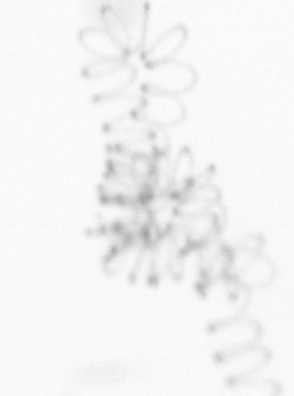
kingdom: Chromista
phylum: Ochrophyta
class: Bacillariophyceae
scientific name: Bacillariophyceae
